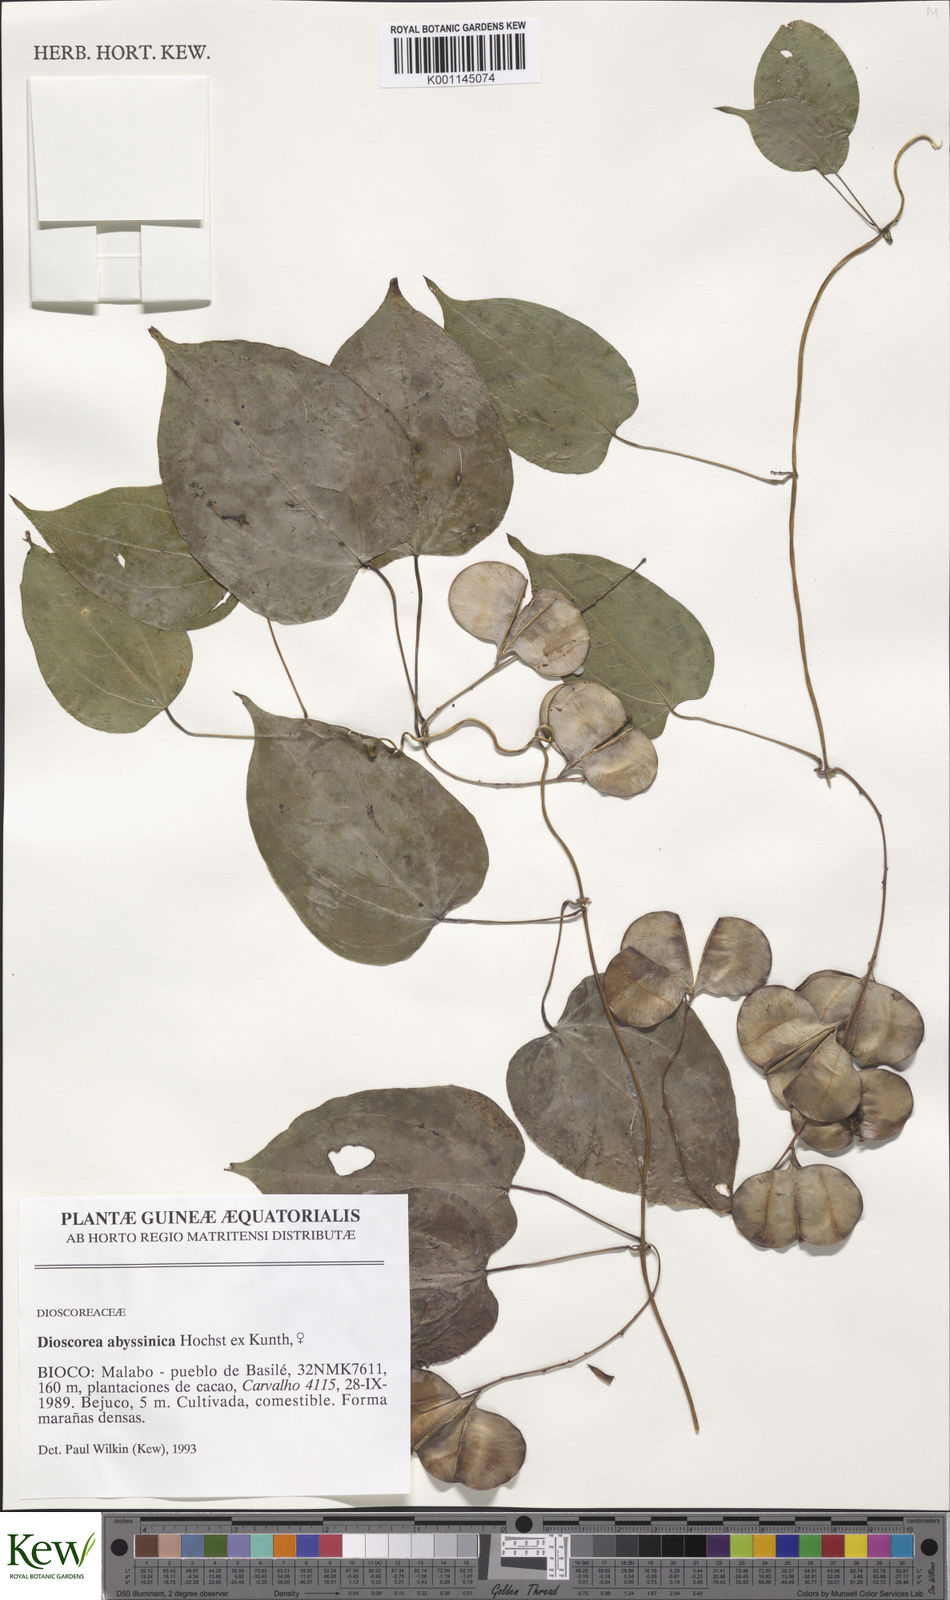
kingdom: Plantae
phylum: Tracheophyta
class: Liliopsida
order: Dioscoreales
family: Dioscoreaceae
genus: Dioscorea
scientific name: Dioscorea abyssinica
